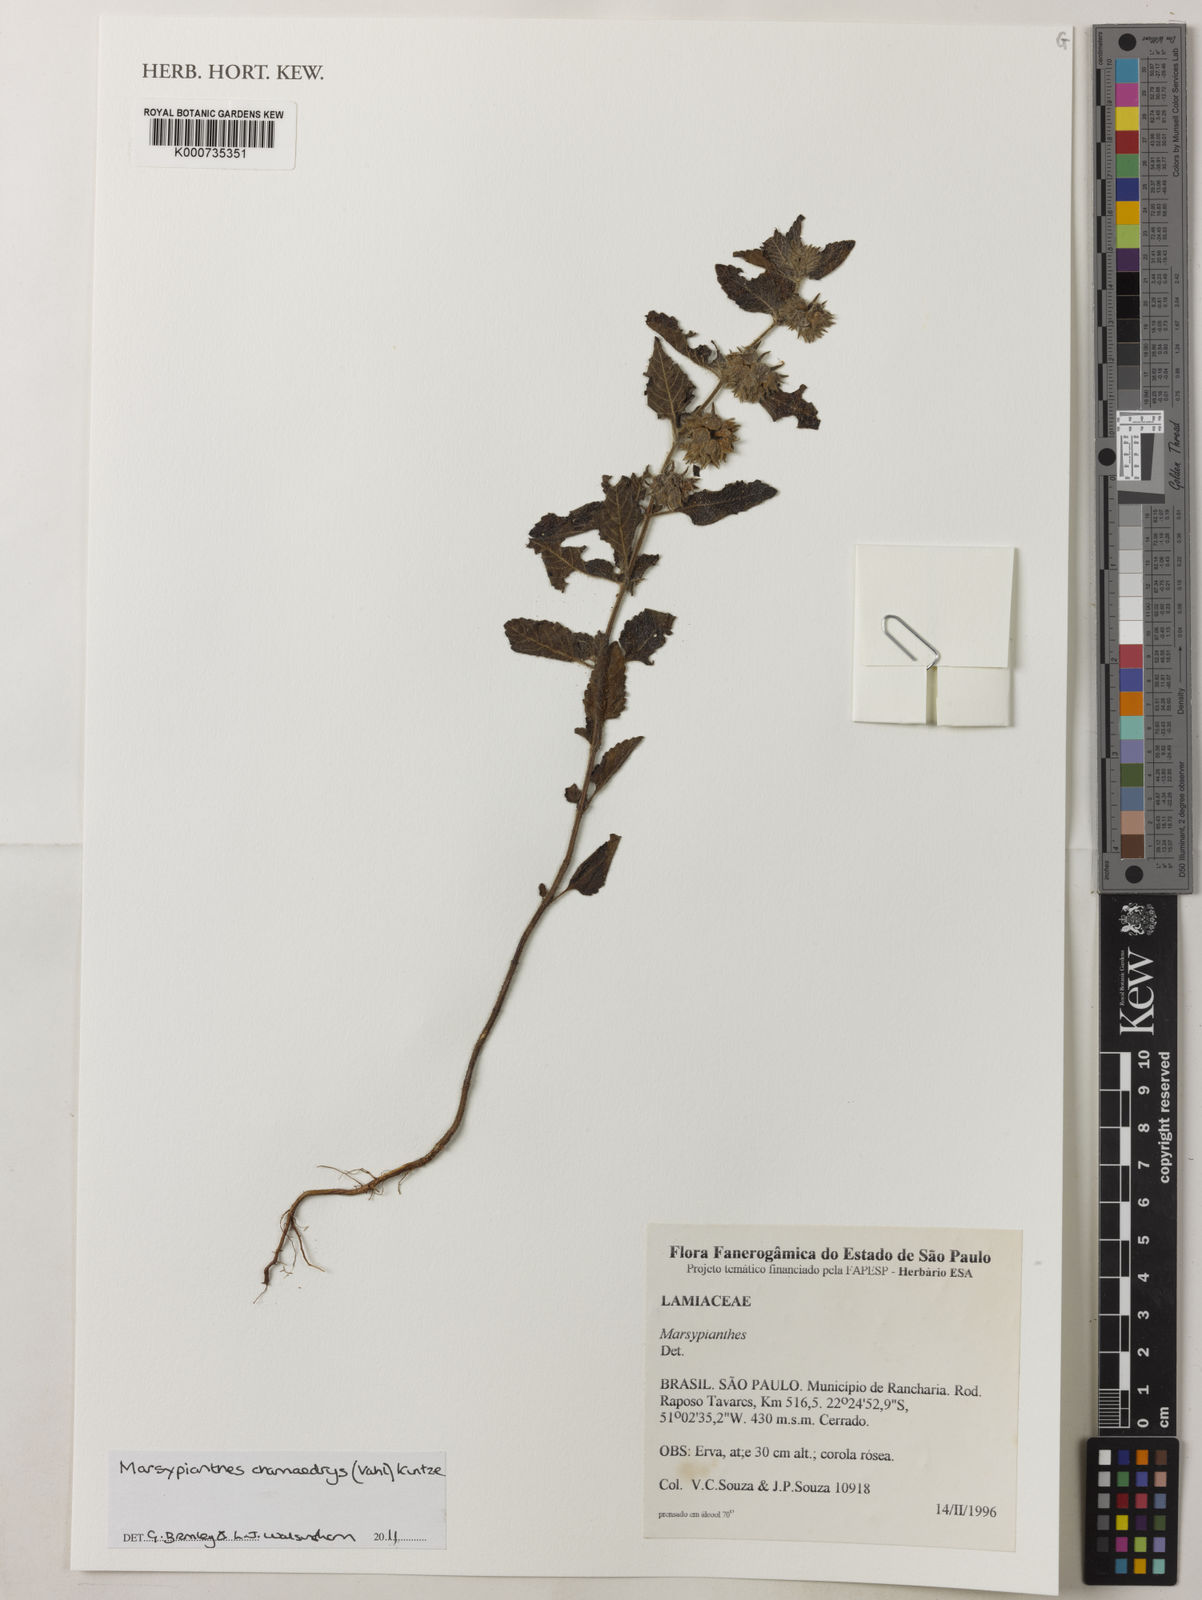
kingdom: Plantae
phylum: Tracheophyta
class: Magnoliopsida
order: Lamiales
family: Lamiaceae
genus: Marsypianthes
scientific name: Marsypianthes chamaedrys
